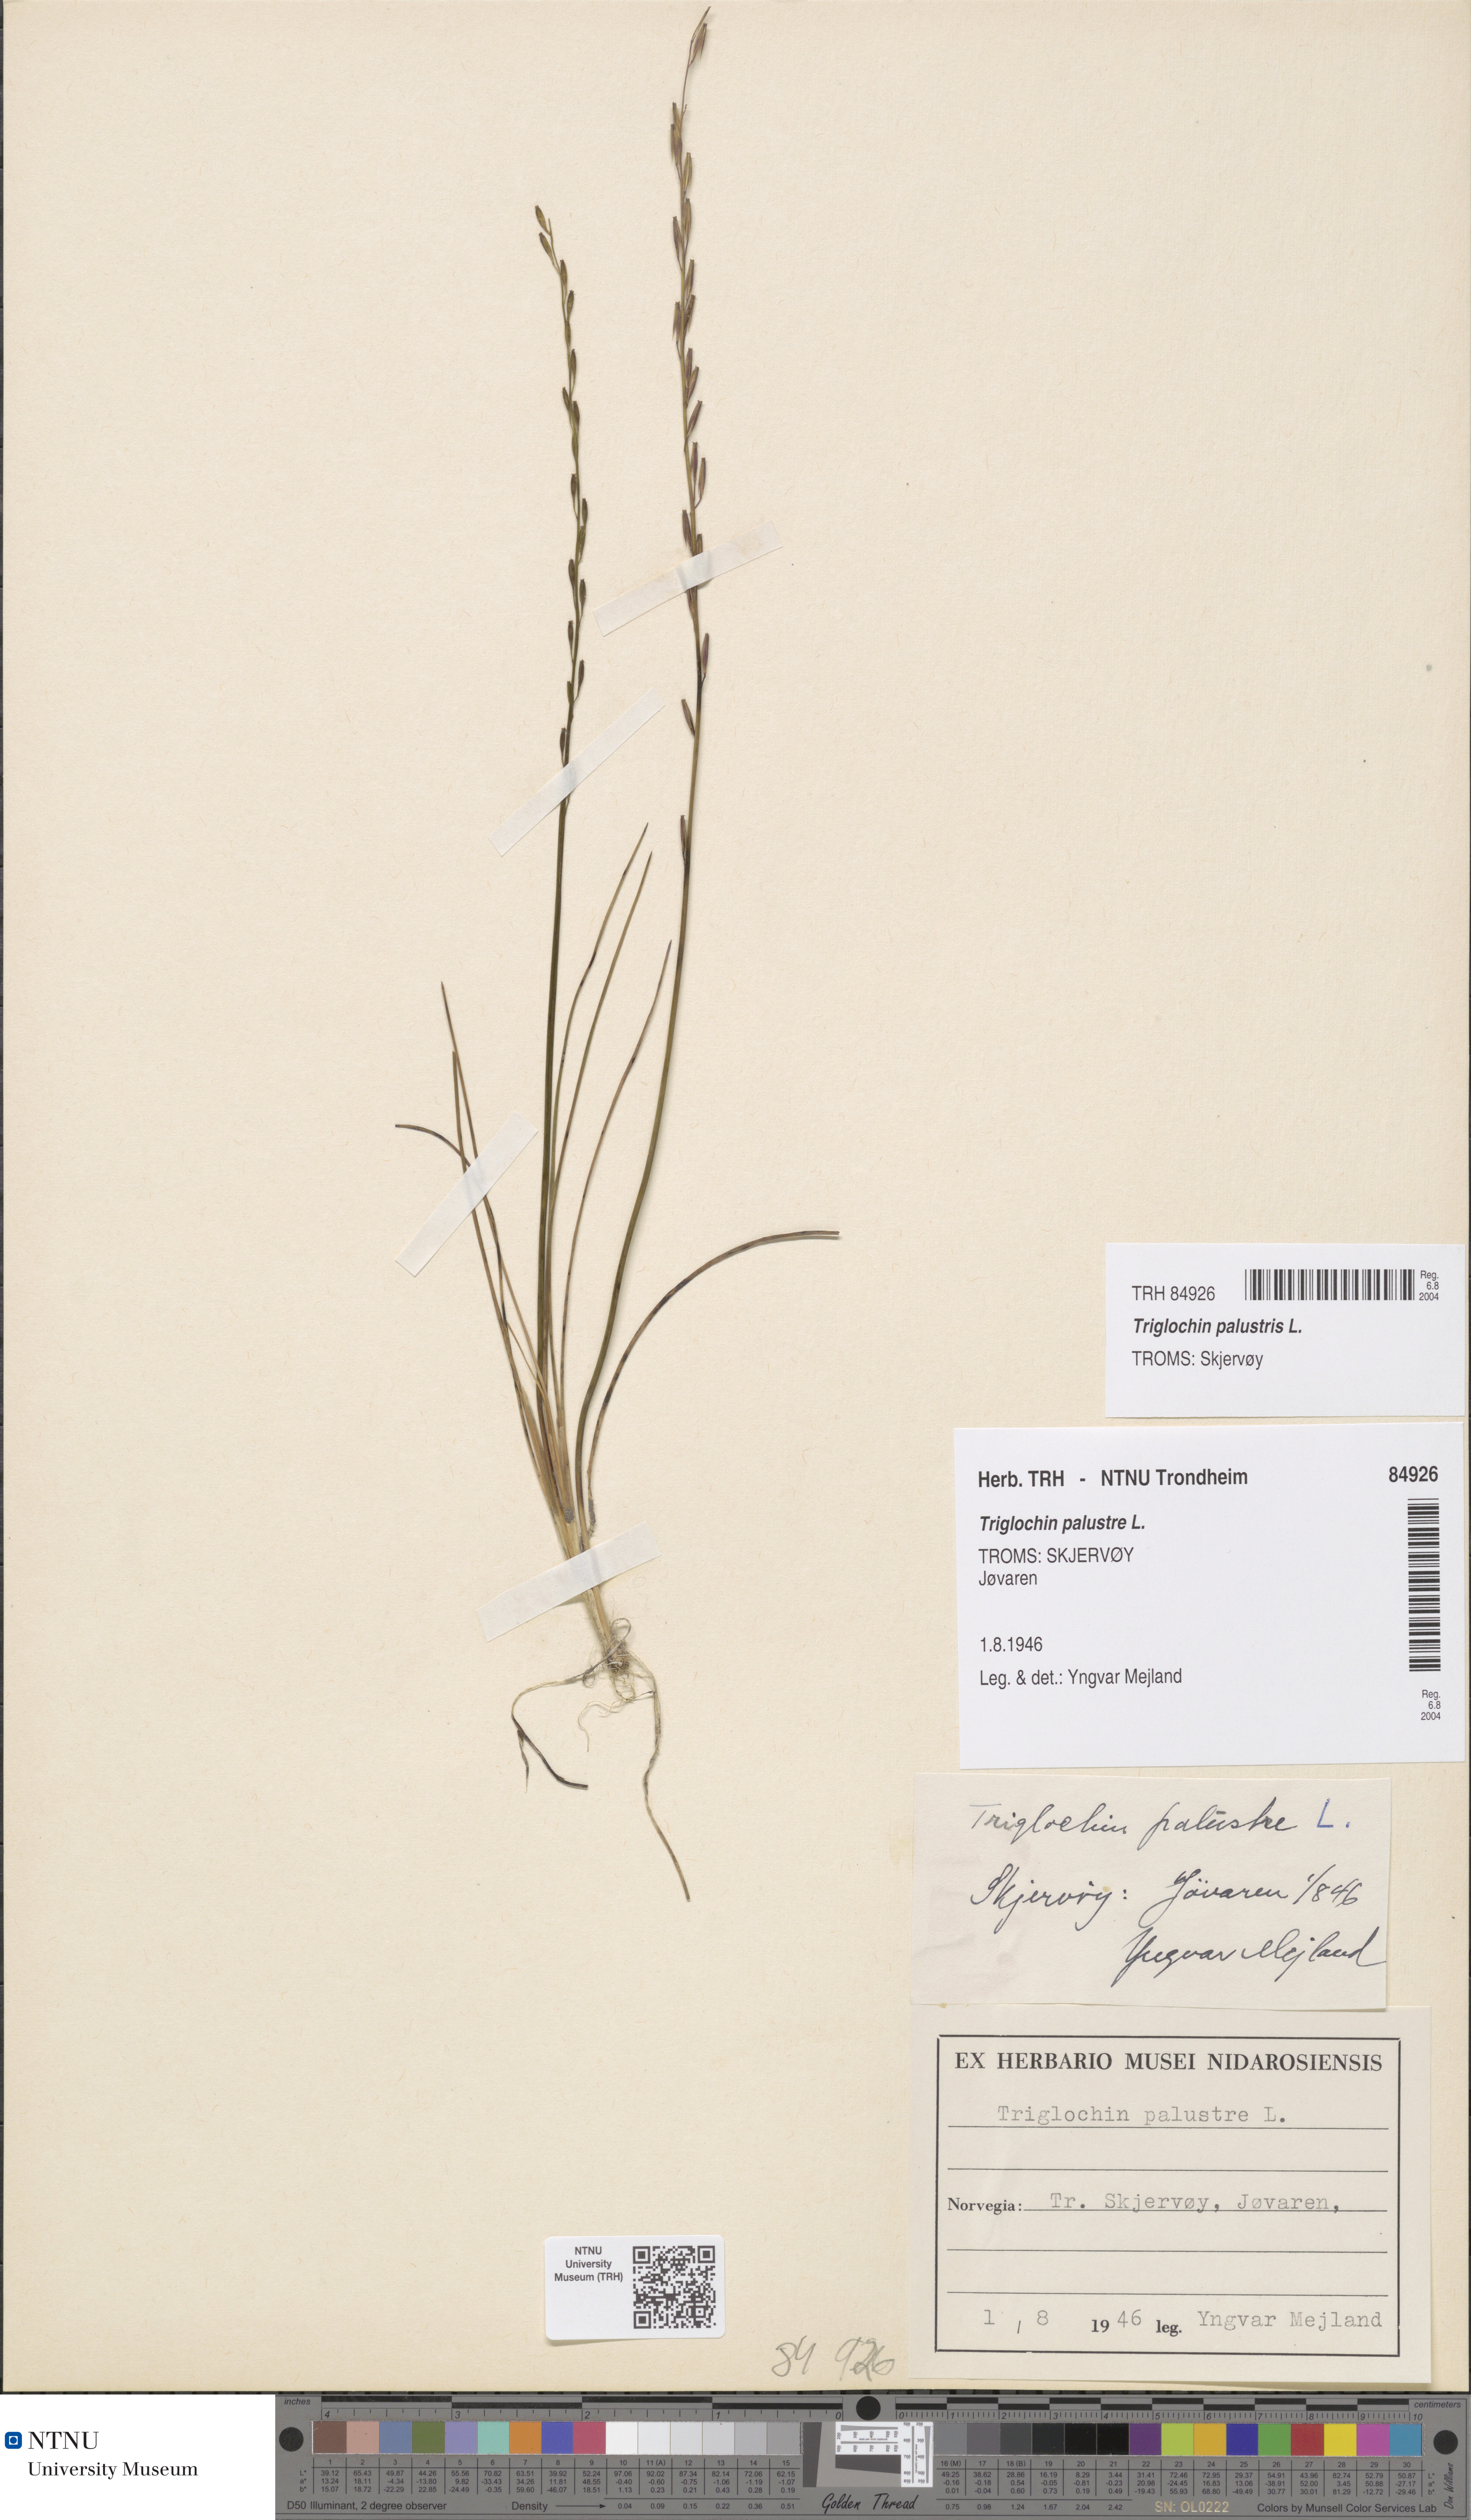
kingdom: Plantae
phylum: Tracheophyta
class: Liliopsida
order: Alismatales
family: Juncaginaceae
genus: Triglochin
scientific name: Triglochin palustris
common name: Marsh arrowgrass
